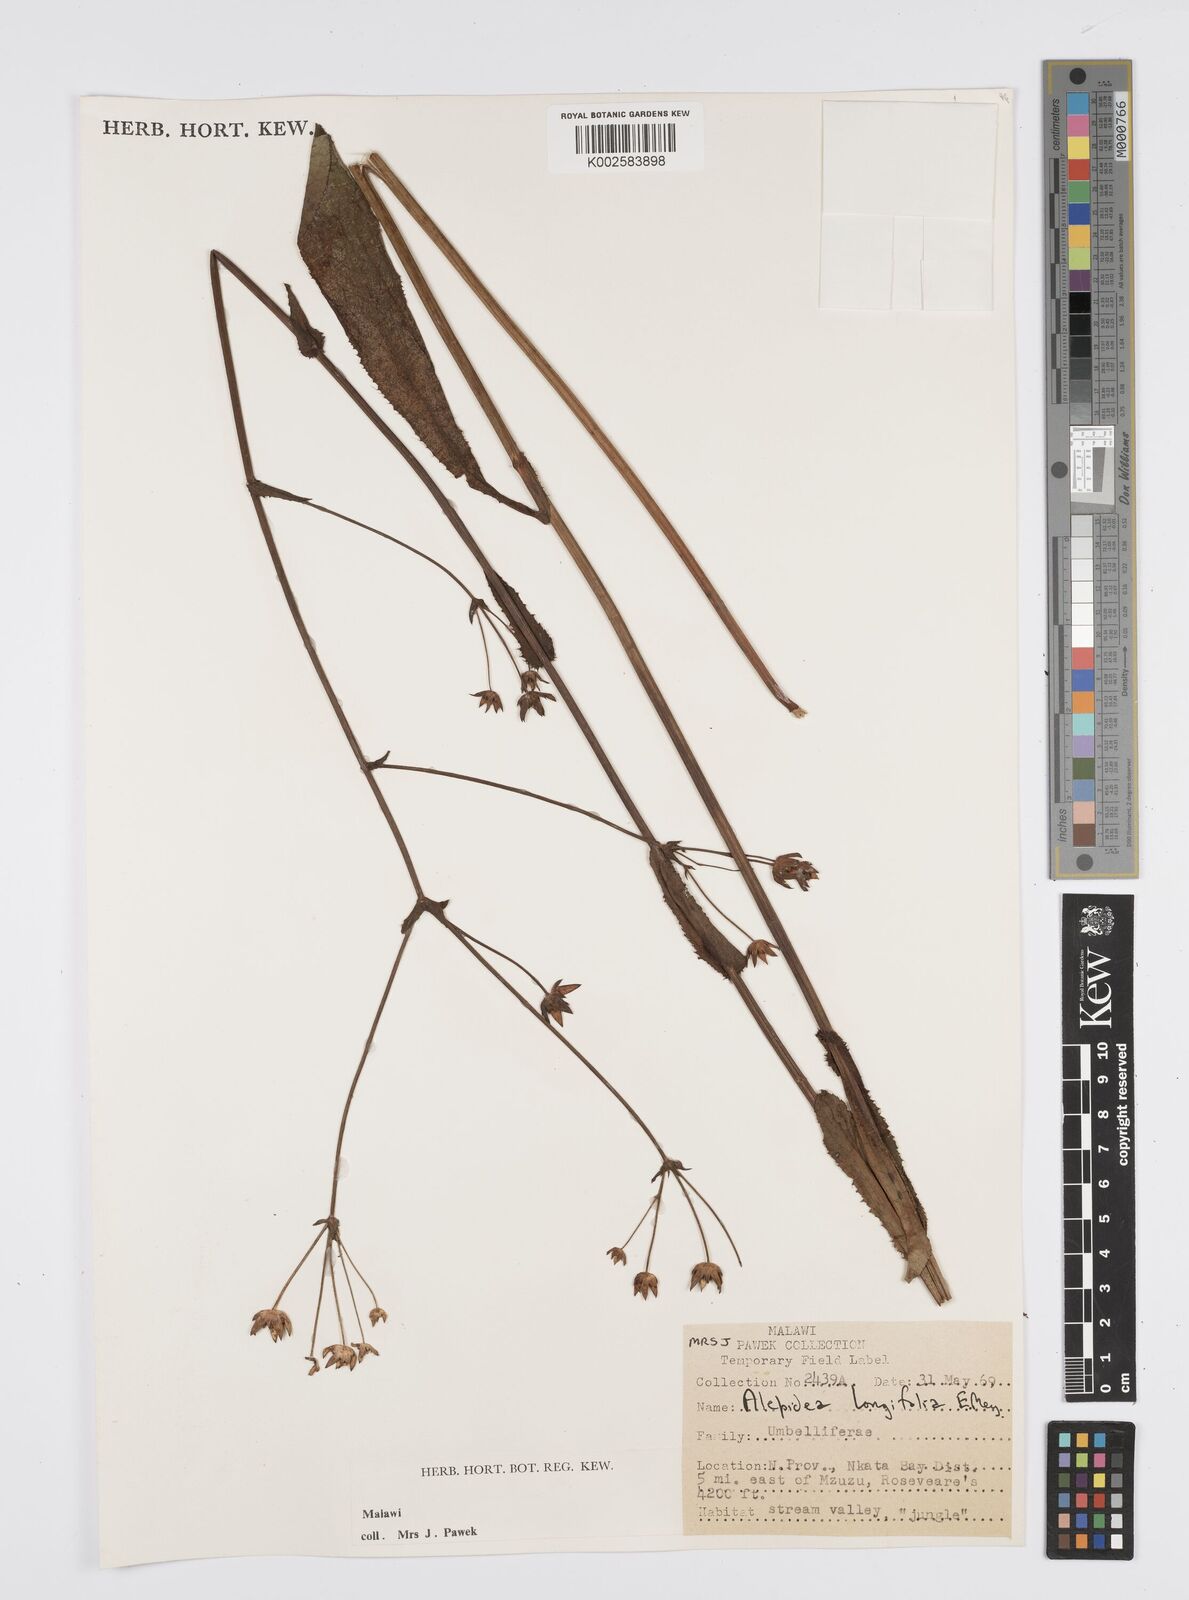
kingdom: Plantae
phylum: Tracheophyta
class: Magnoliopsida
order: Apiales
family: Apiaceae
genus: Alepidea
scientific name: Alepidea
